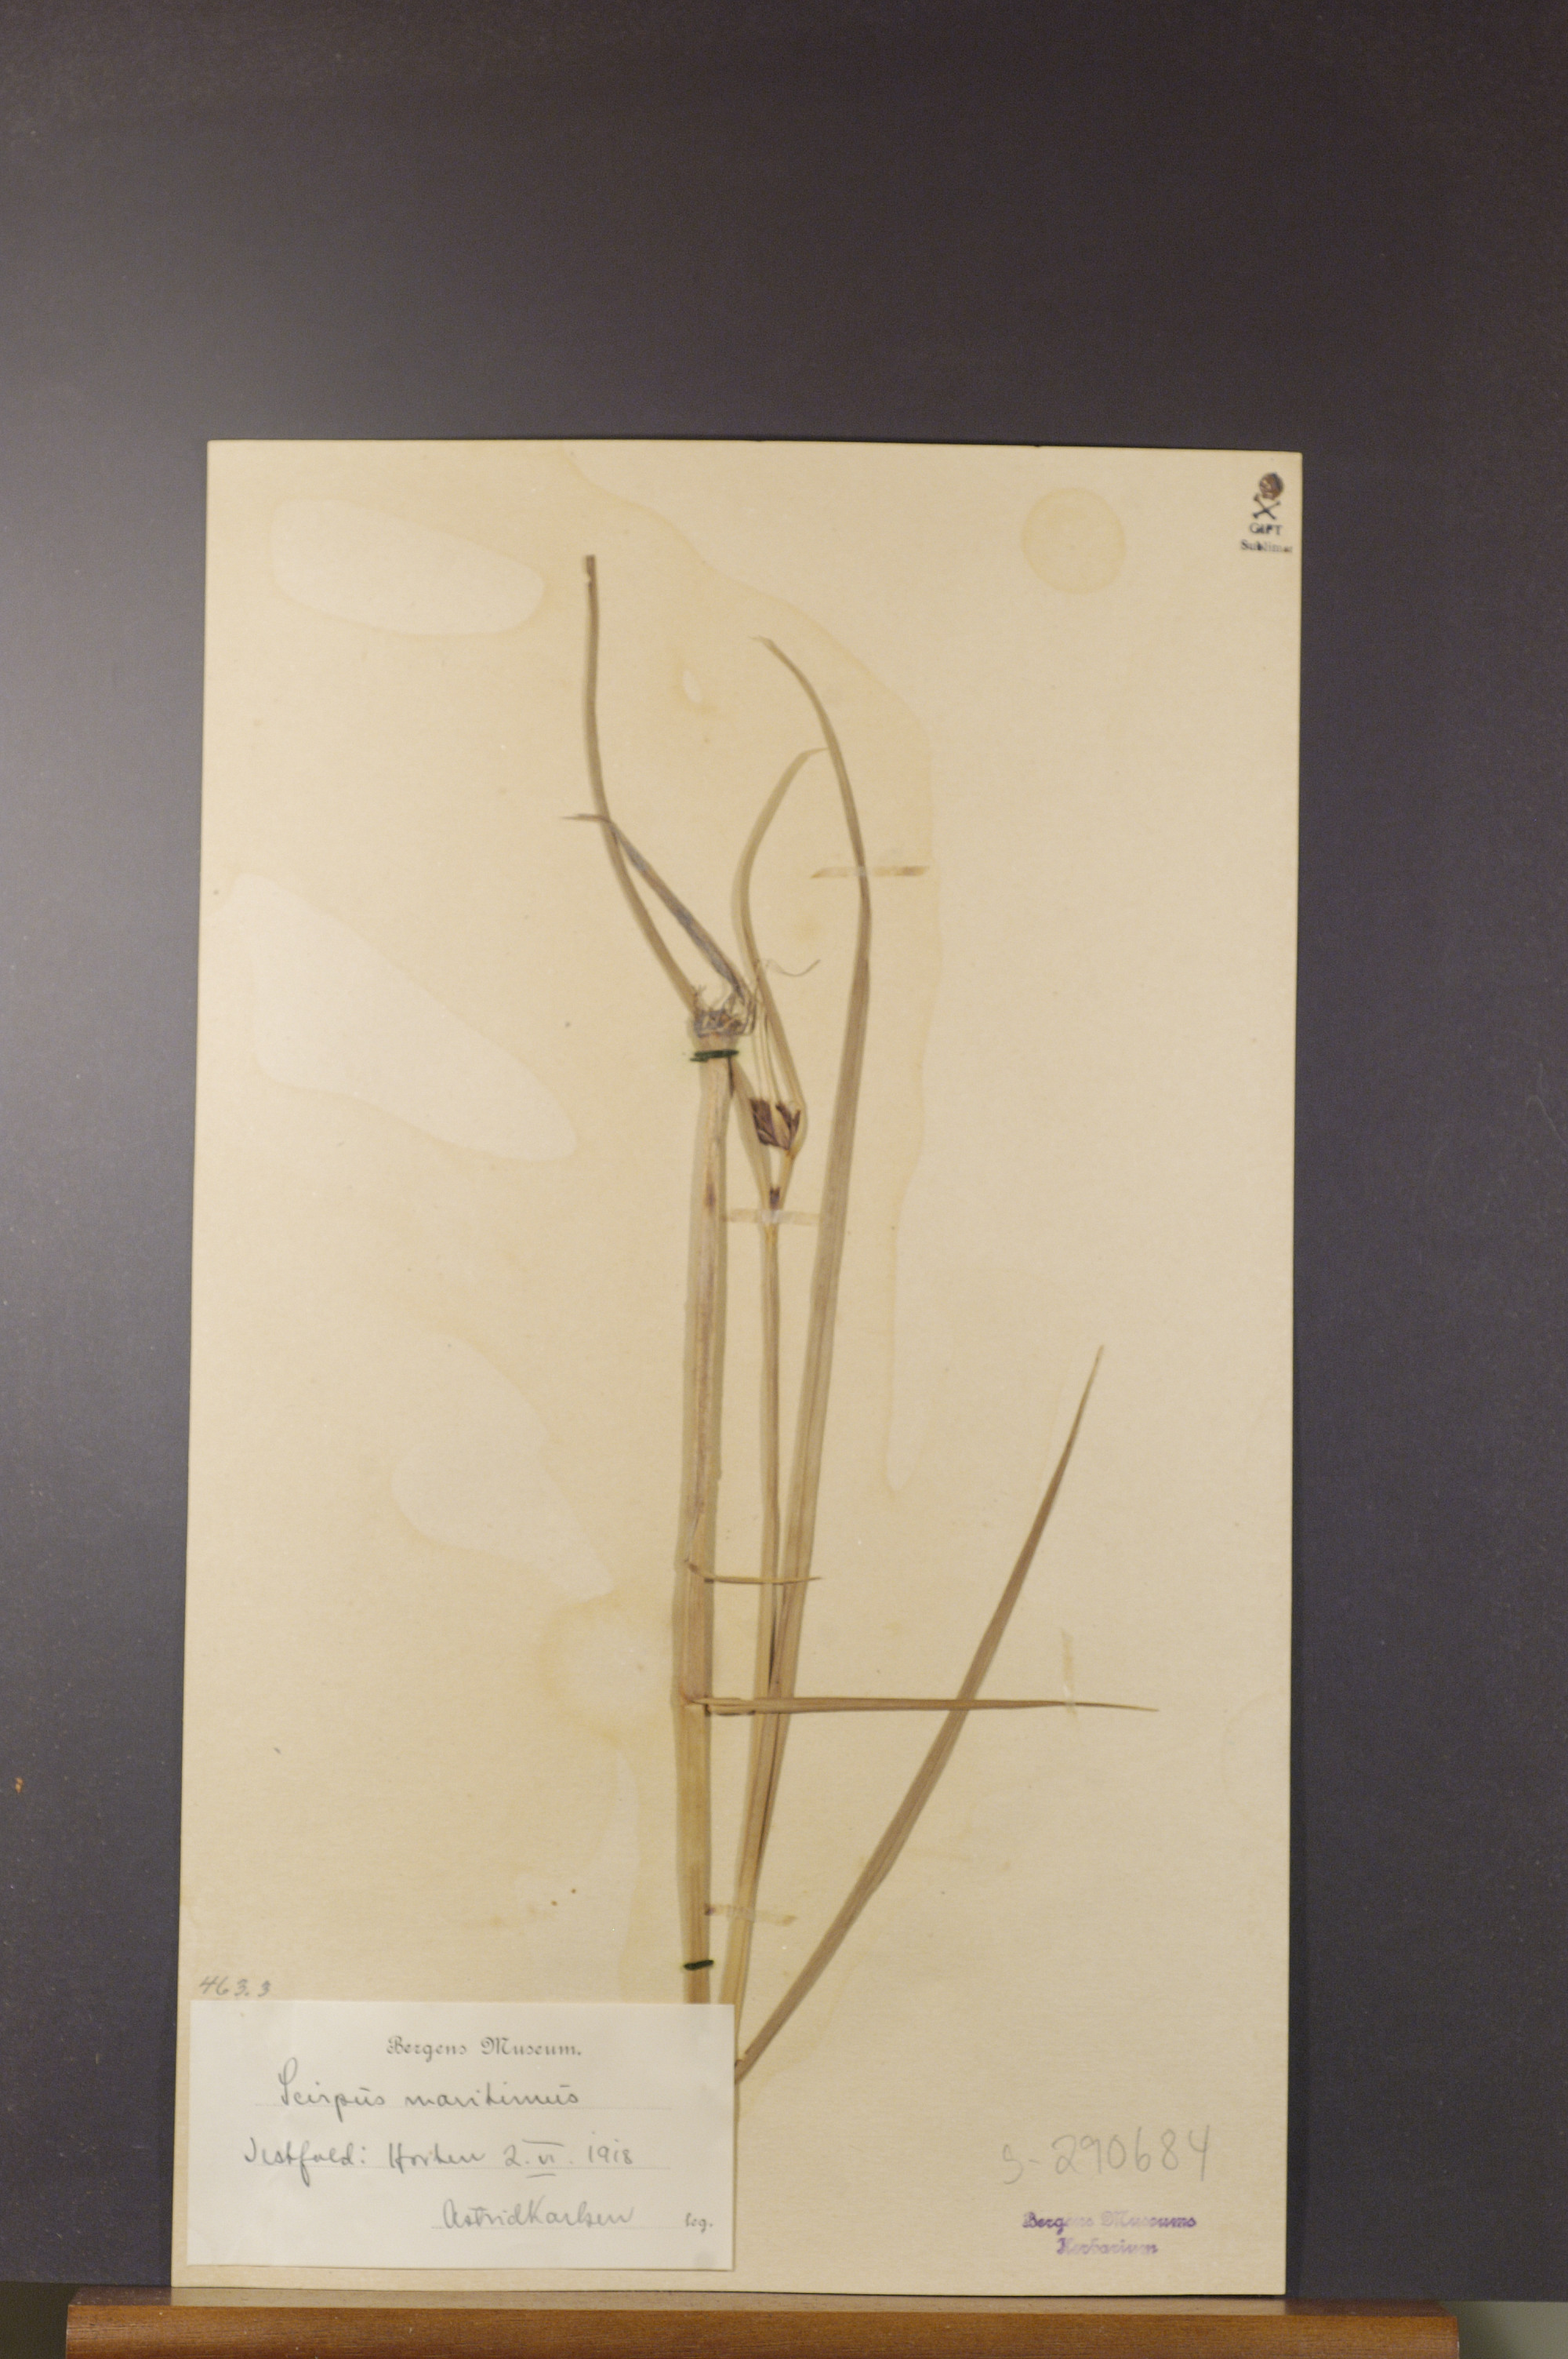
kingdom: Plantae
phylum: Tracheophyta
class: Liliopsida
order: Poales
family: Cyperaceae
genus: Bolboschoenus
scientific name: Bolboschoenus maritimus
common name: Sea club-rush
